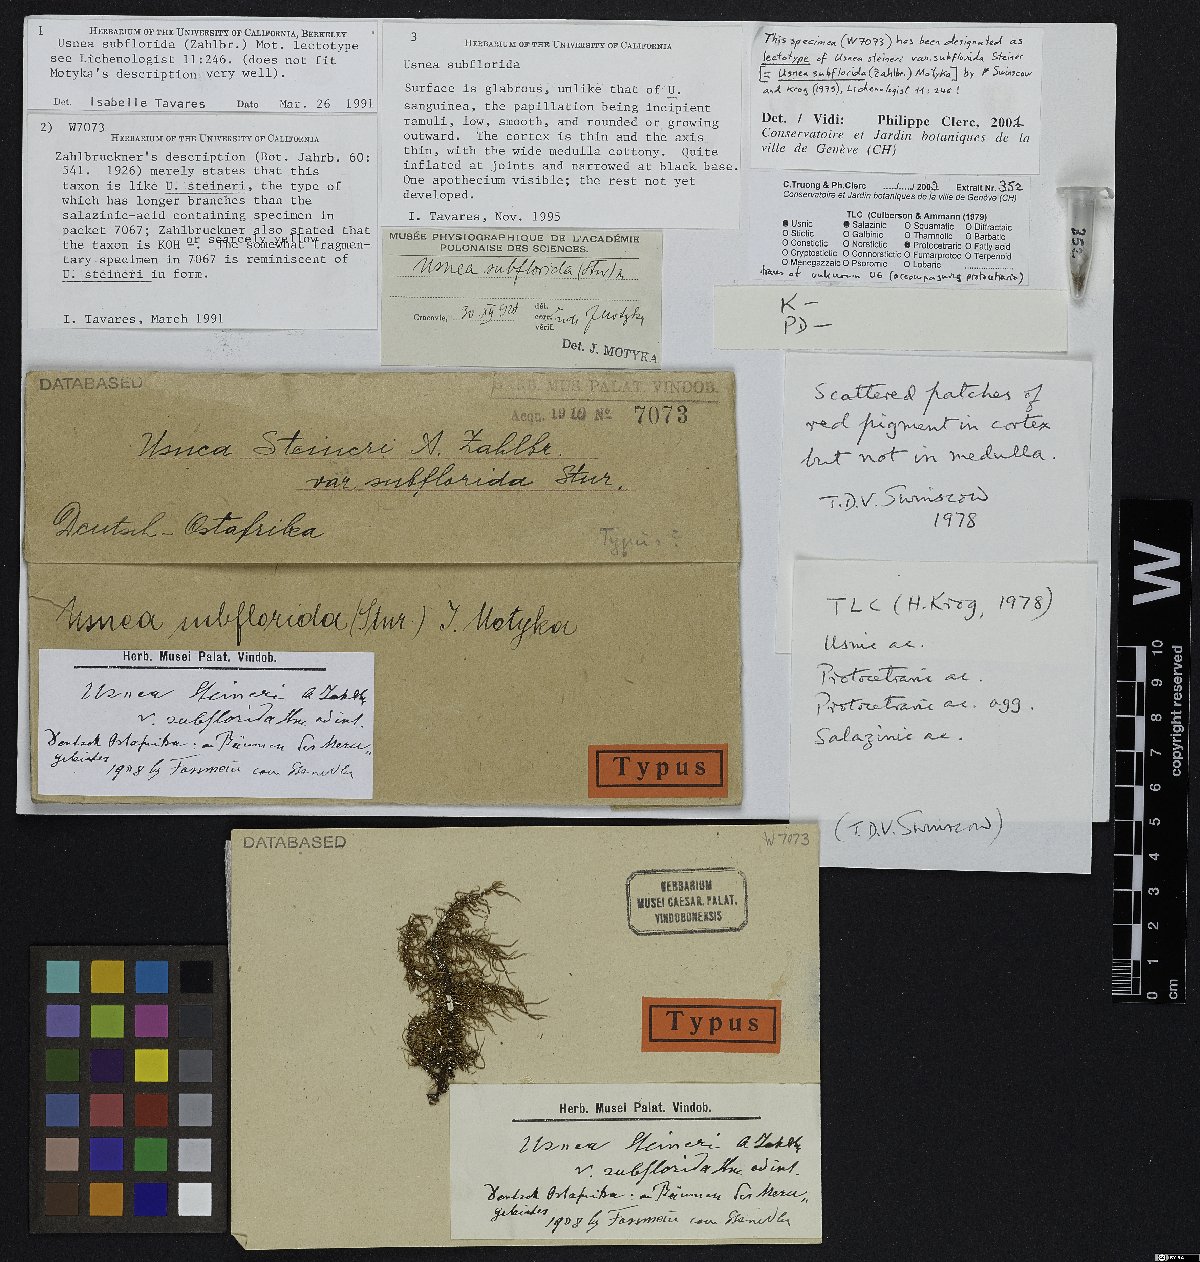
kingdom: Fungi
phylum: Ascomycota
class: Lecanoromycetes
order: Lecanorales
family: Parmeliaceae
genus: Usnea
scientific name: Usnea steineri
